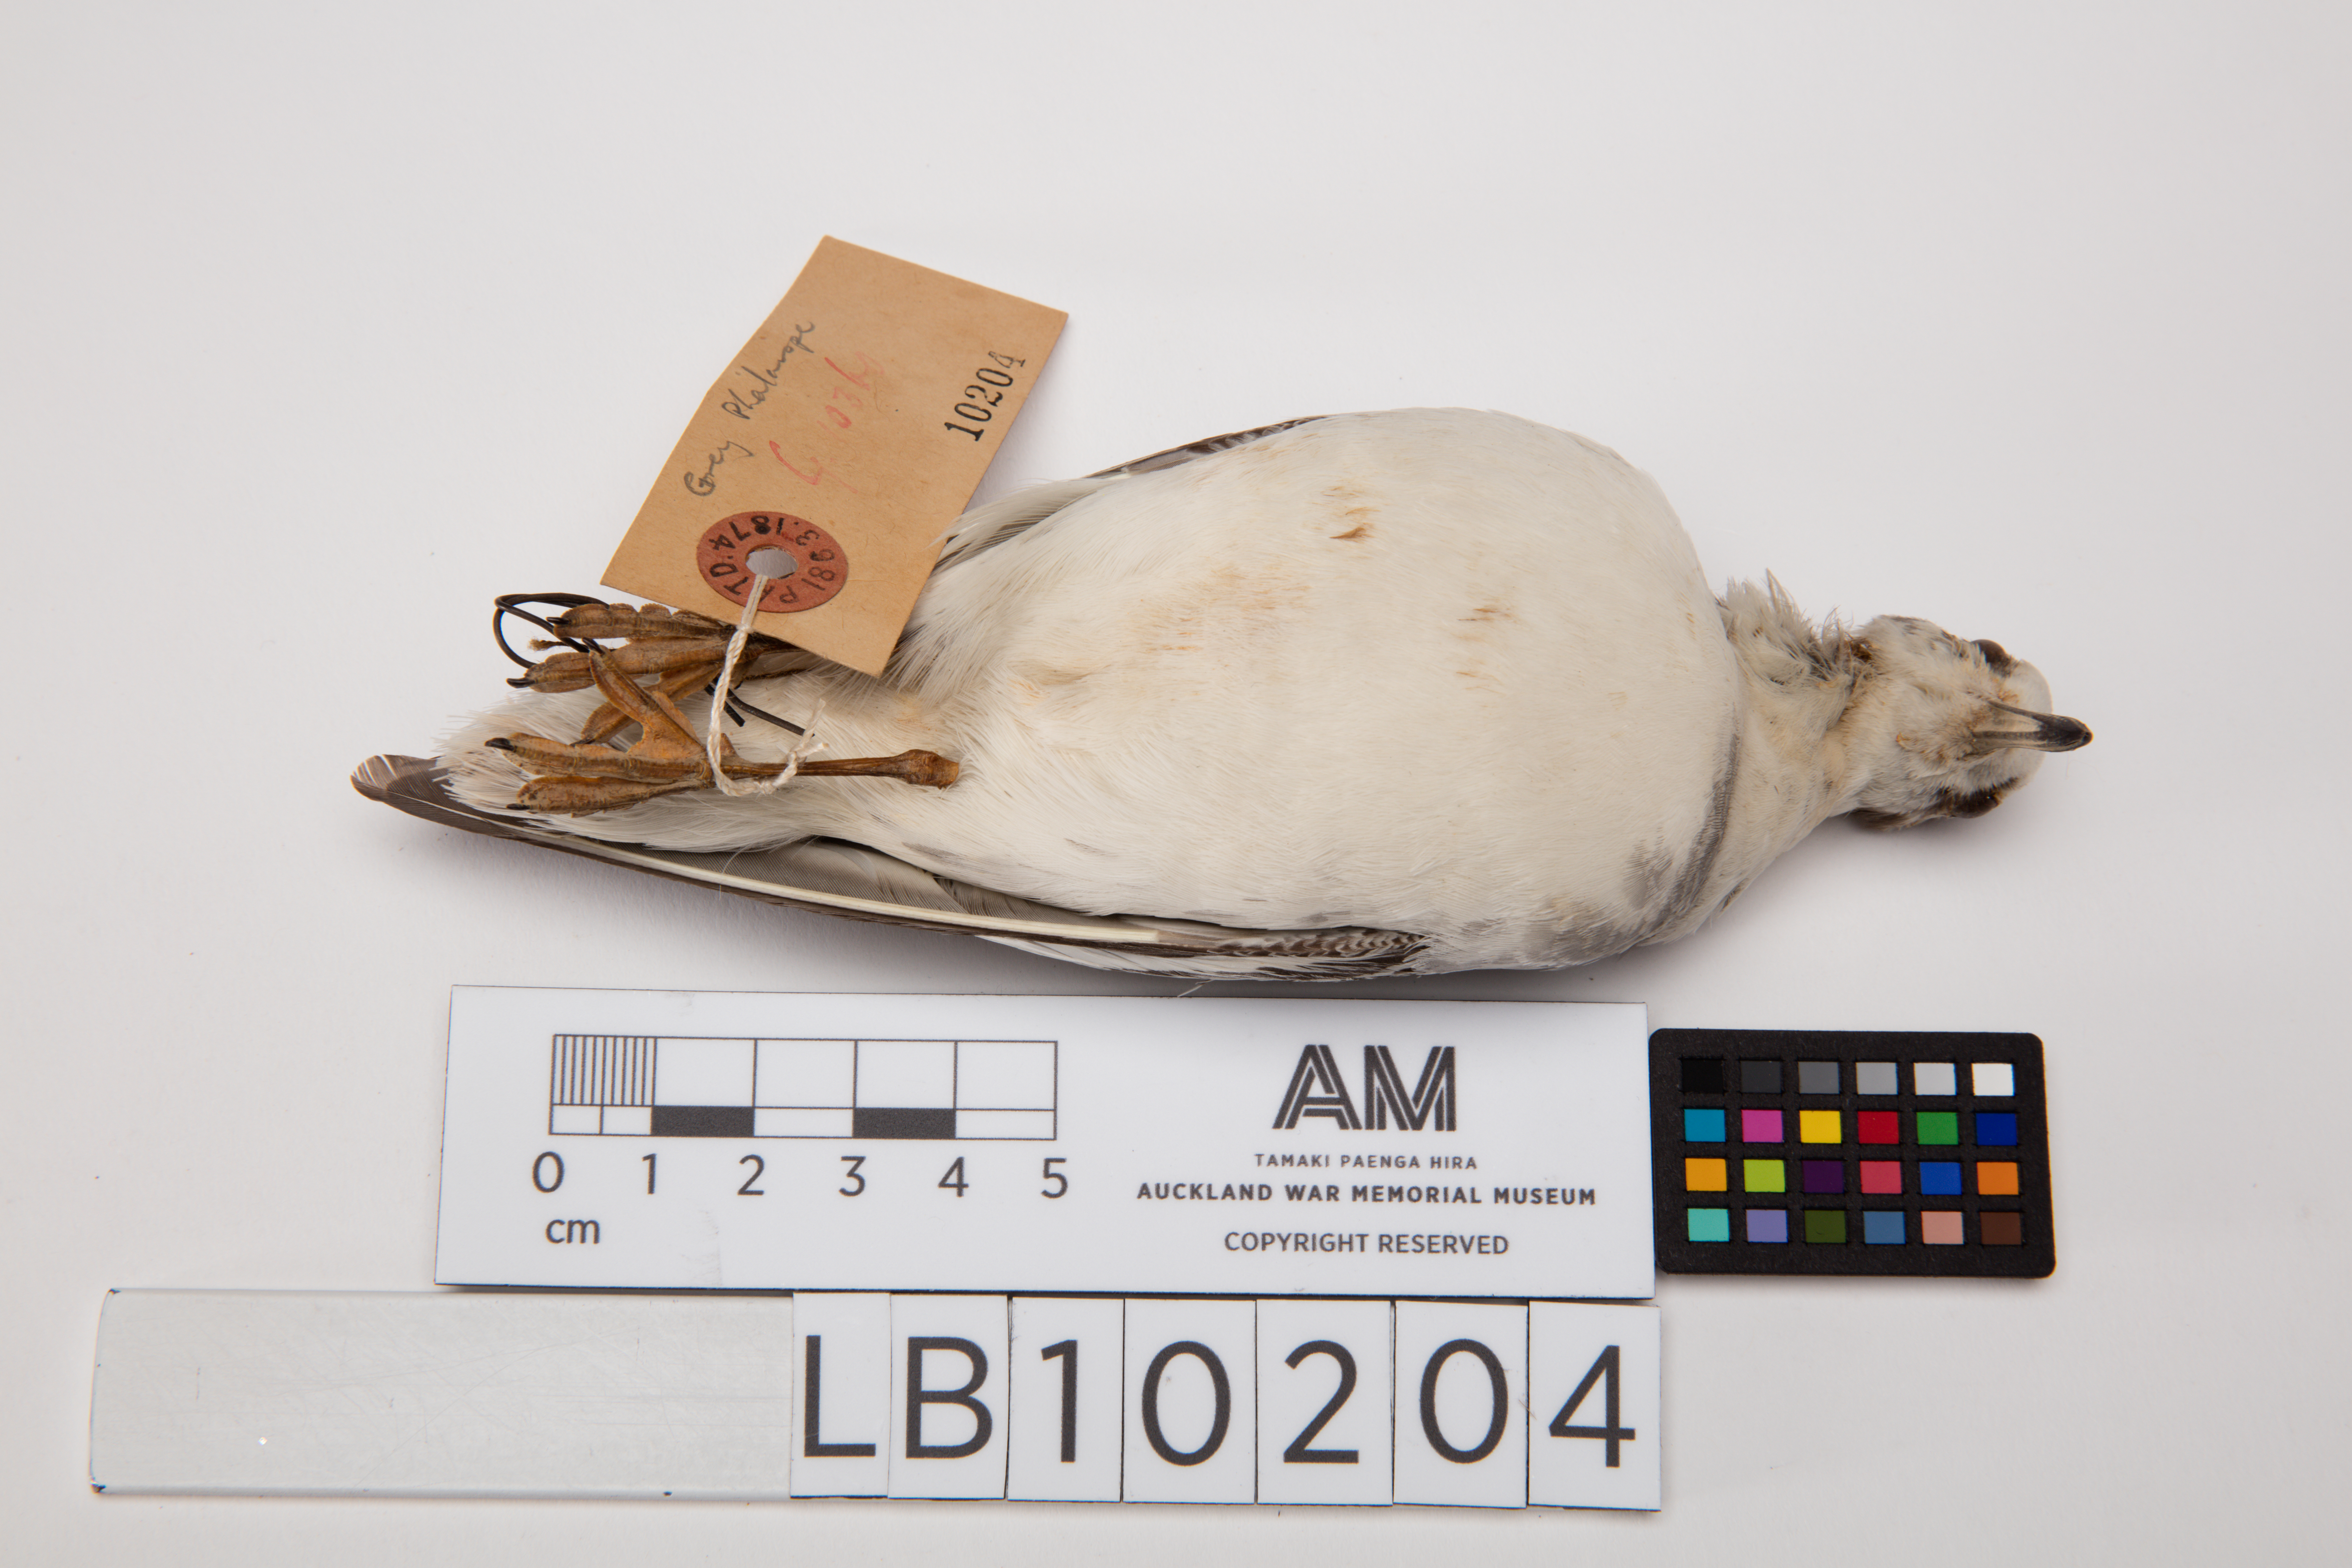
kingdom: Animalia
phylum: Chordata
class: Aves
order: Charadriiformes
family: Scolopacidae
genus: Phalaropus
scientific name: Phalaropus fulicarius
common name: Red phalarope
